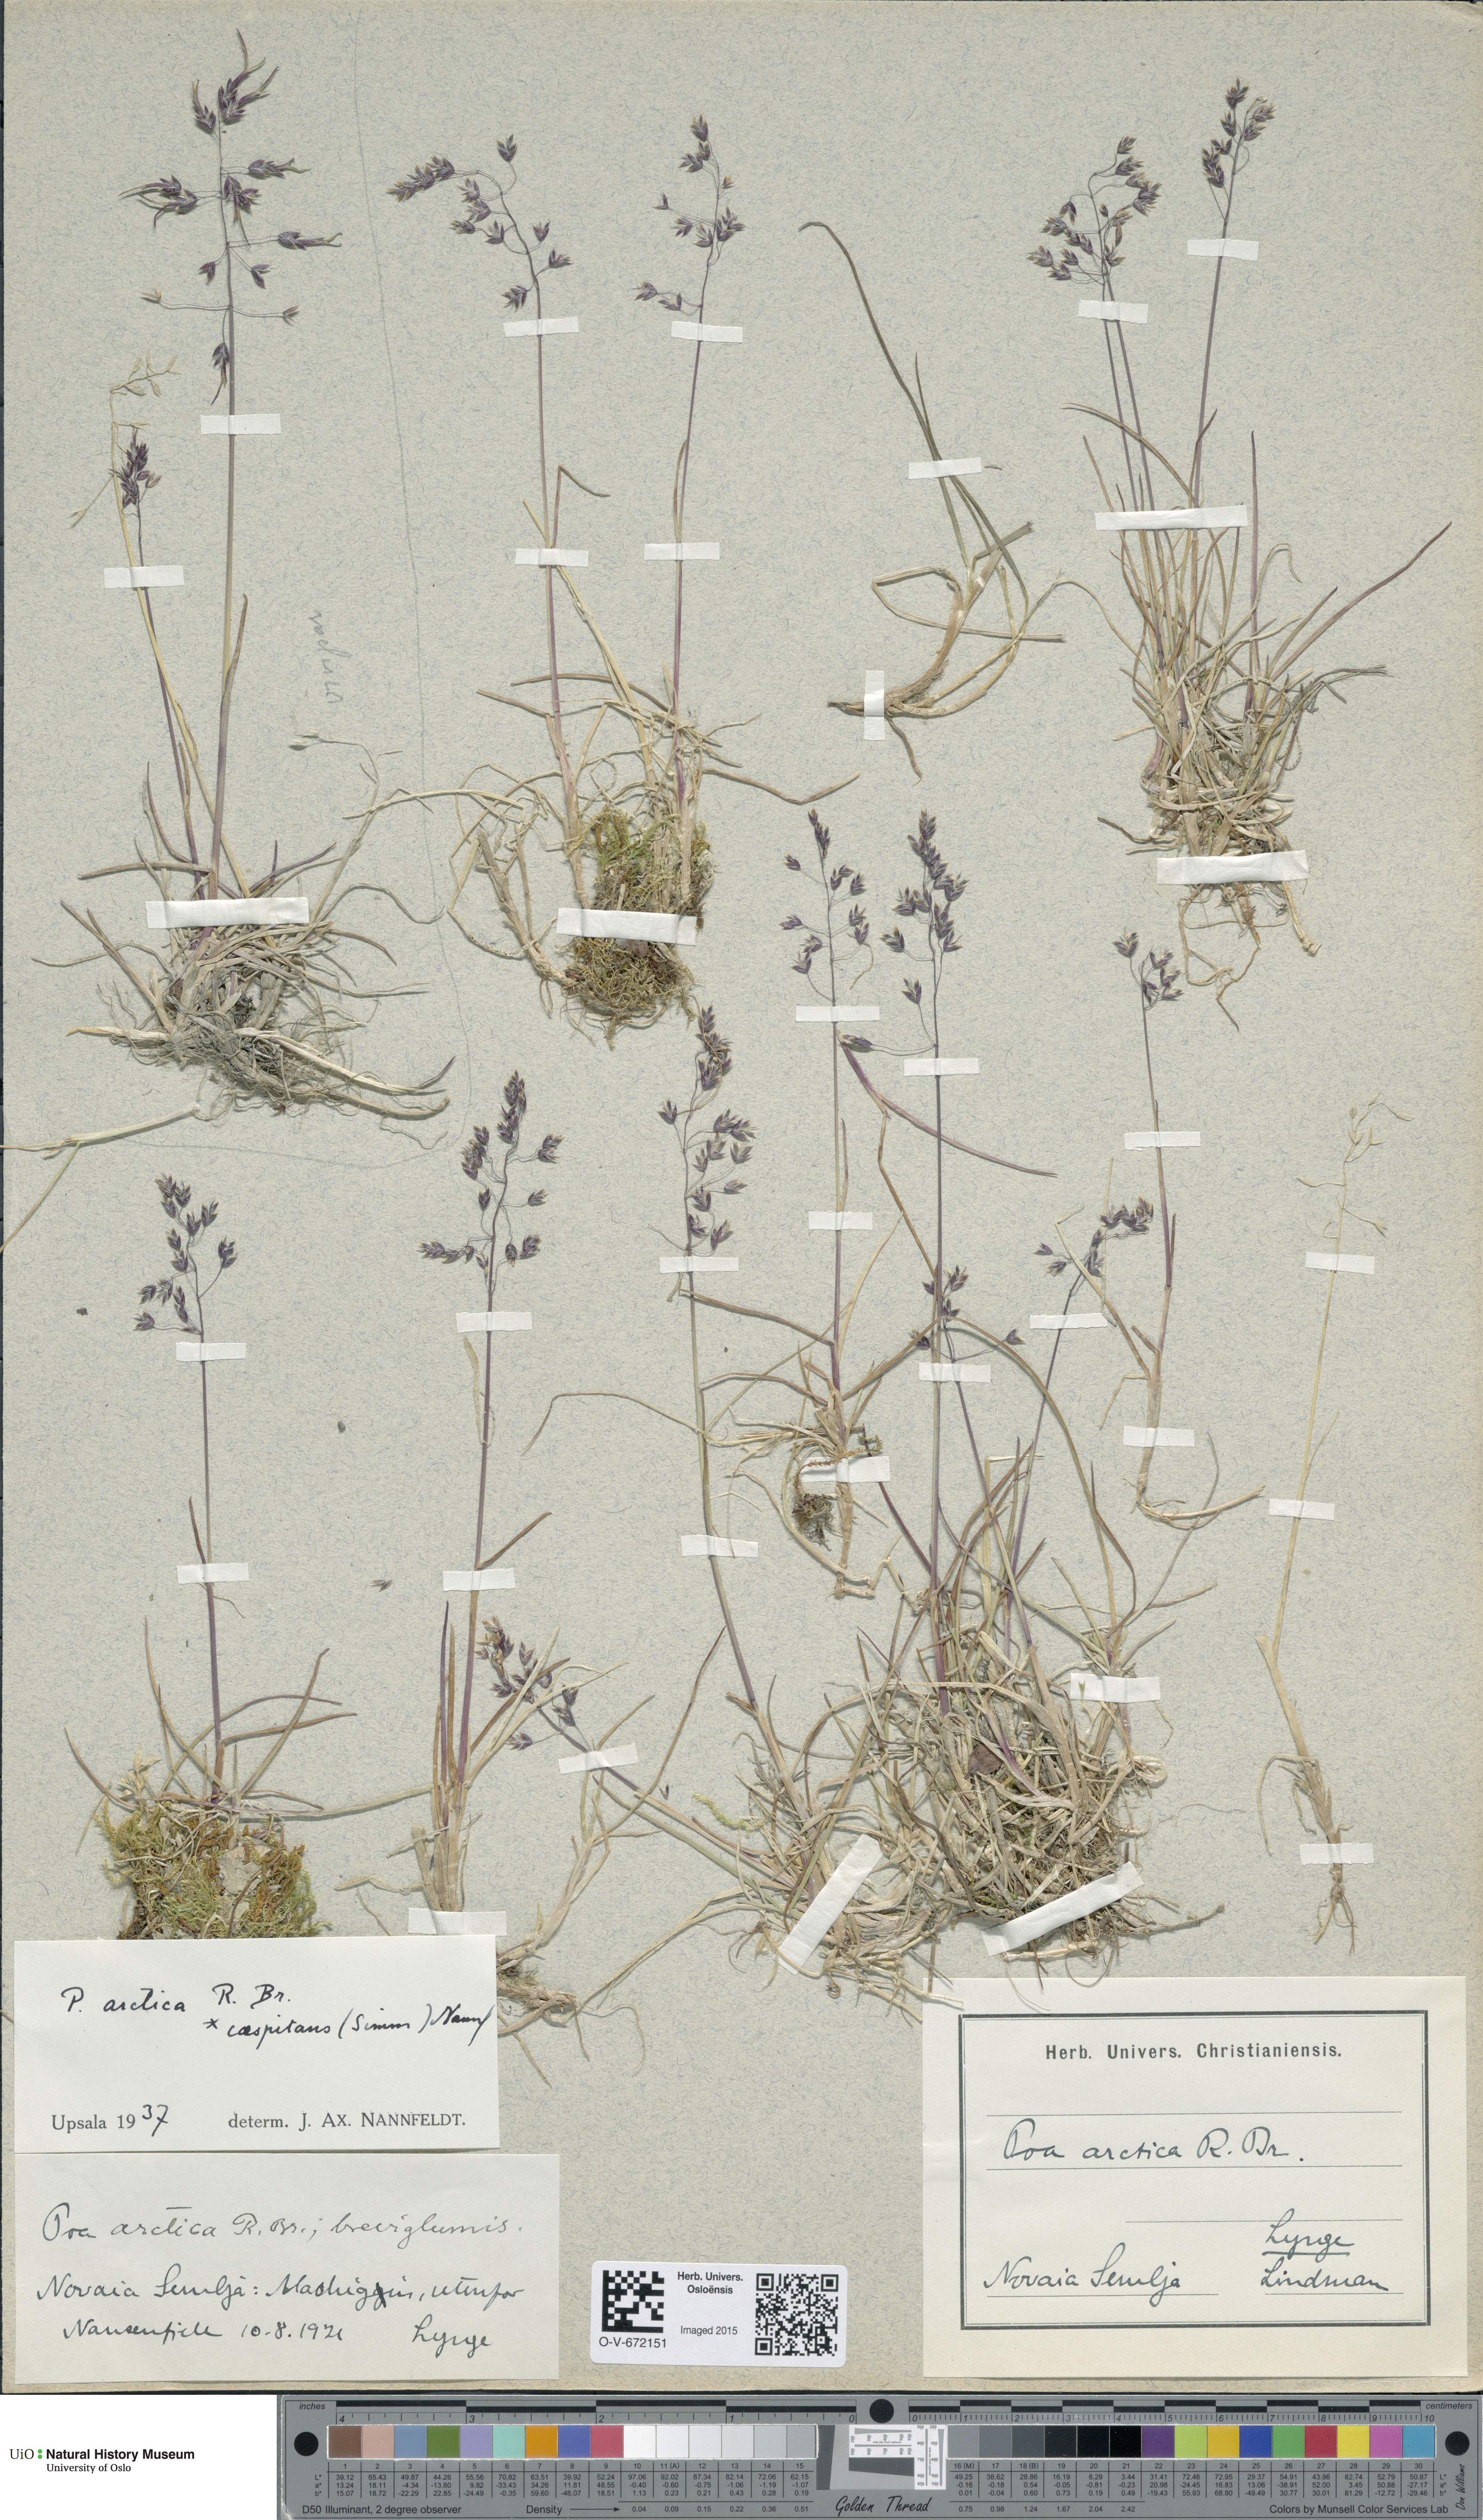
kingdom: Plantae
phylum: Tracheophyta
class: Liliopsida
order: Poales
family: Poaceae
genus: Poa
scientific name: Poa tolmatchewii
